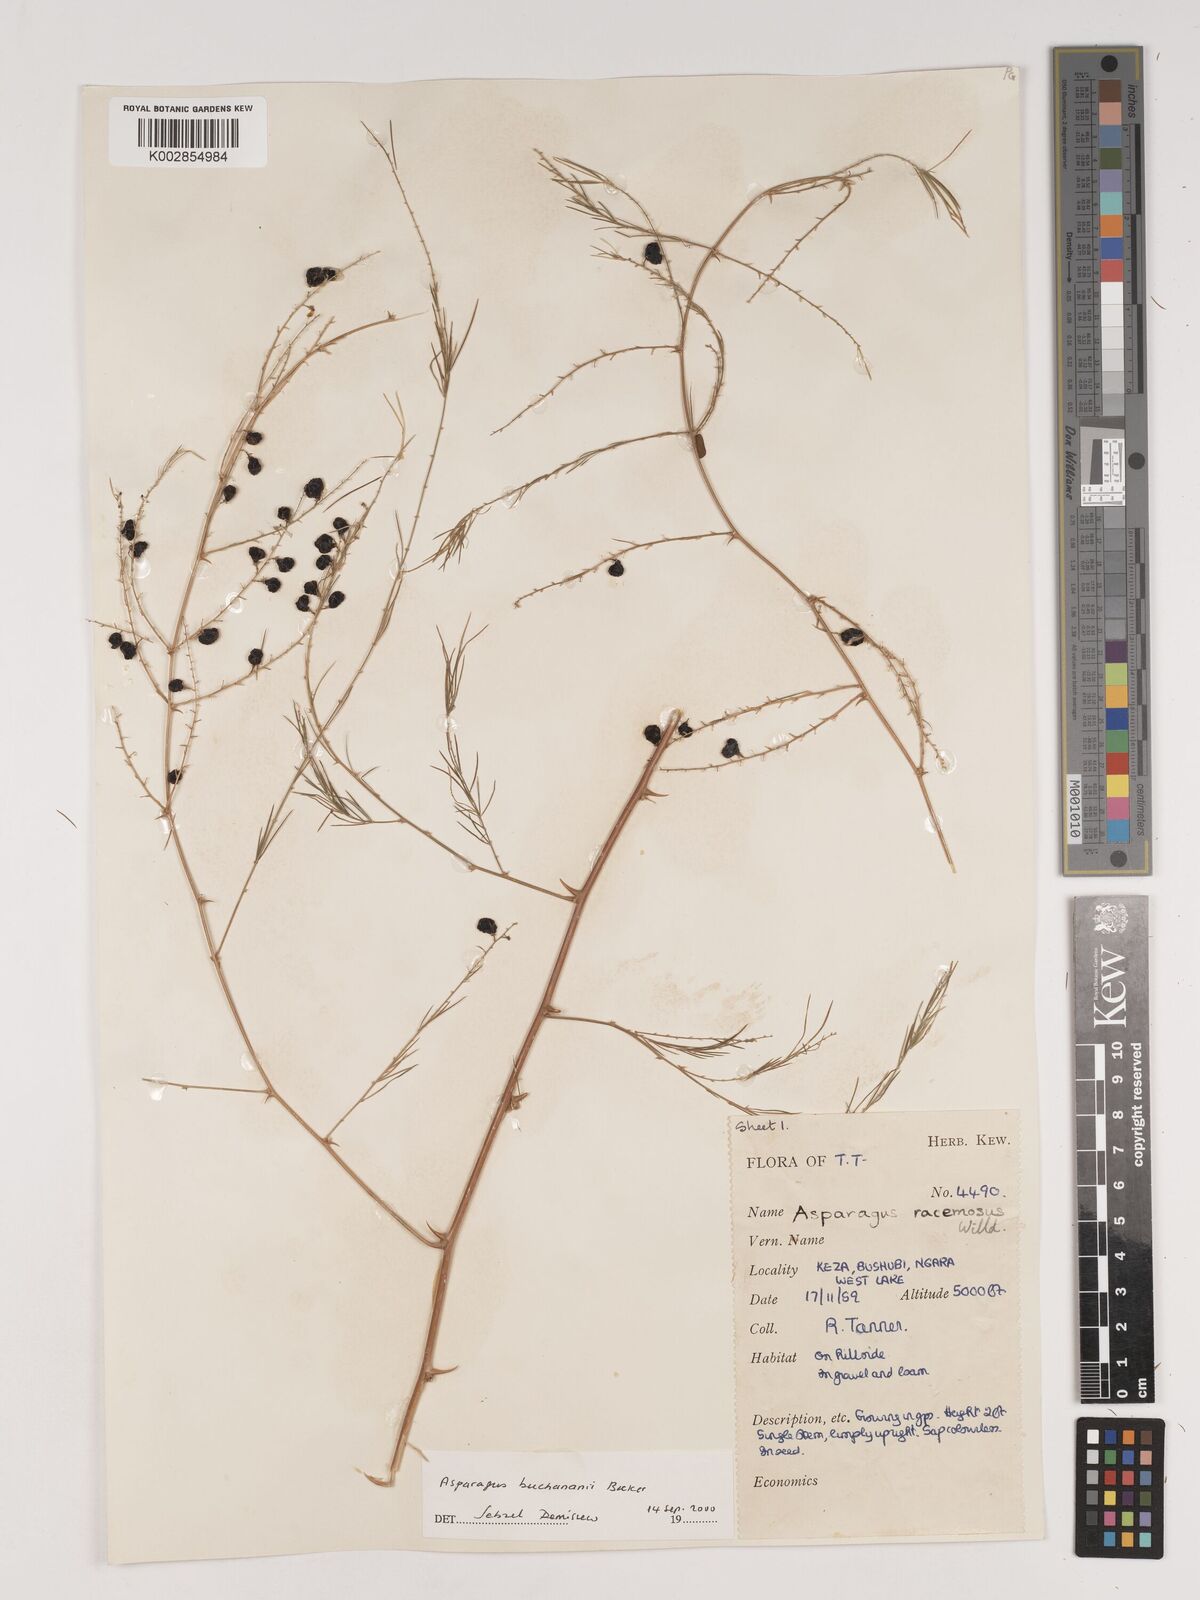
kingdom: Plantae
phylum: Tracheophyta
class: Liliopsida
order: Asparagales
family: Asparagaceae
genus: Asparagus
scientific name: Asparagus buchananii
